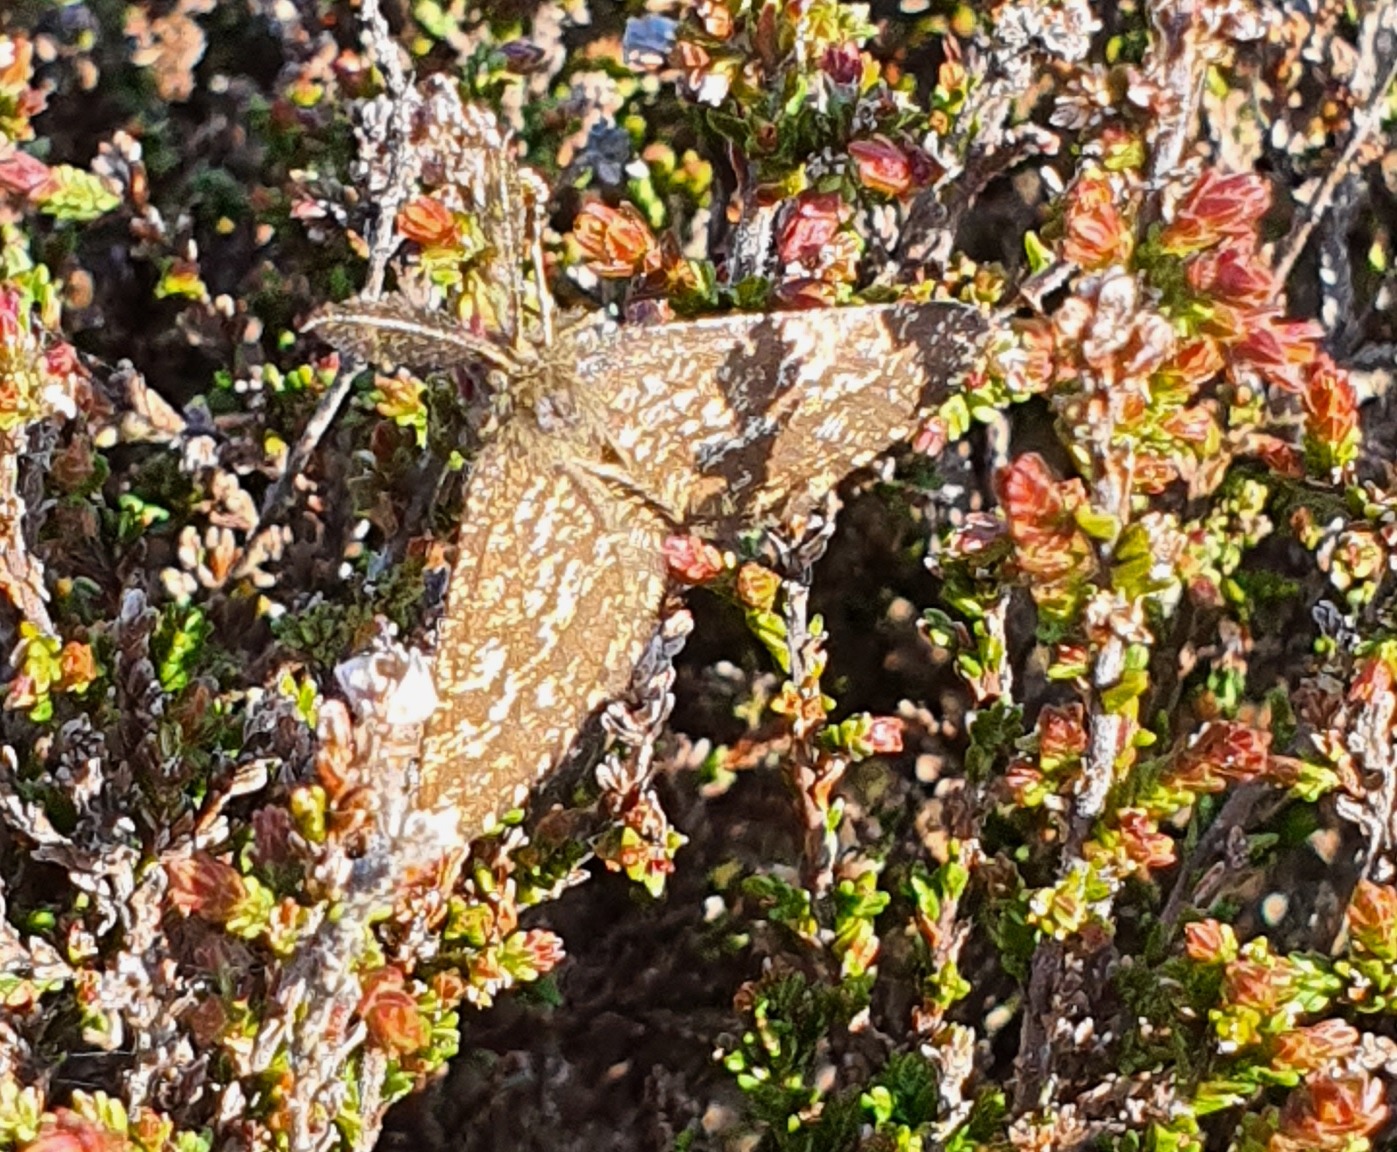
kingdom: Animalia
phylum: Arthropoda
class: Insecta
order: Lepidoptera
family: Geometridae
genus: Ematurga
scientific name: Ematurga atomaria
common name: Lyngmåler
